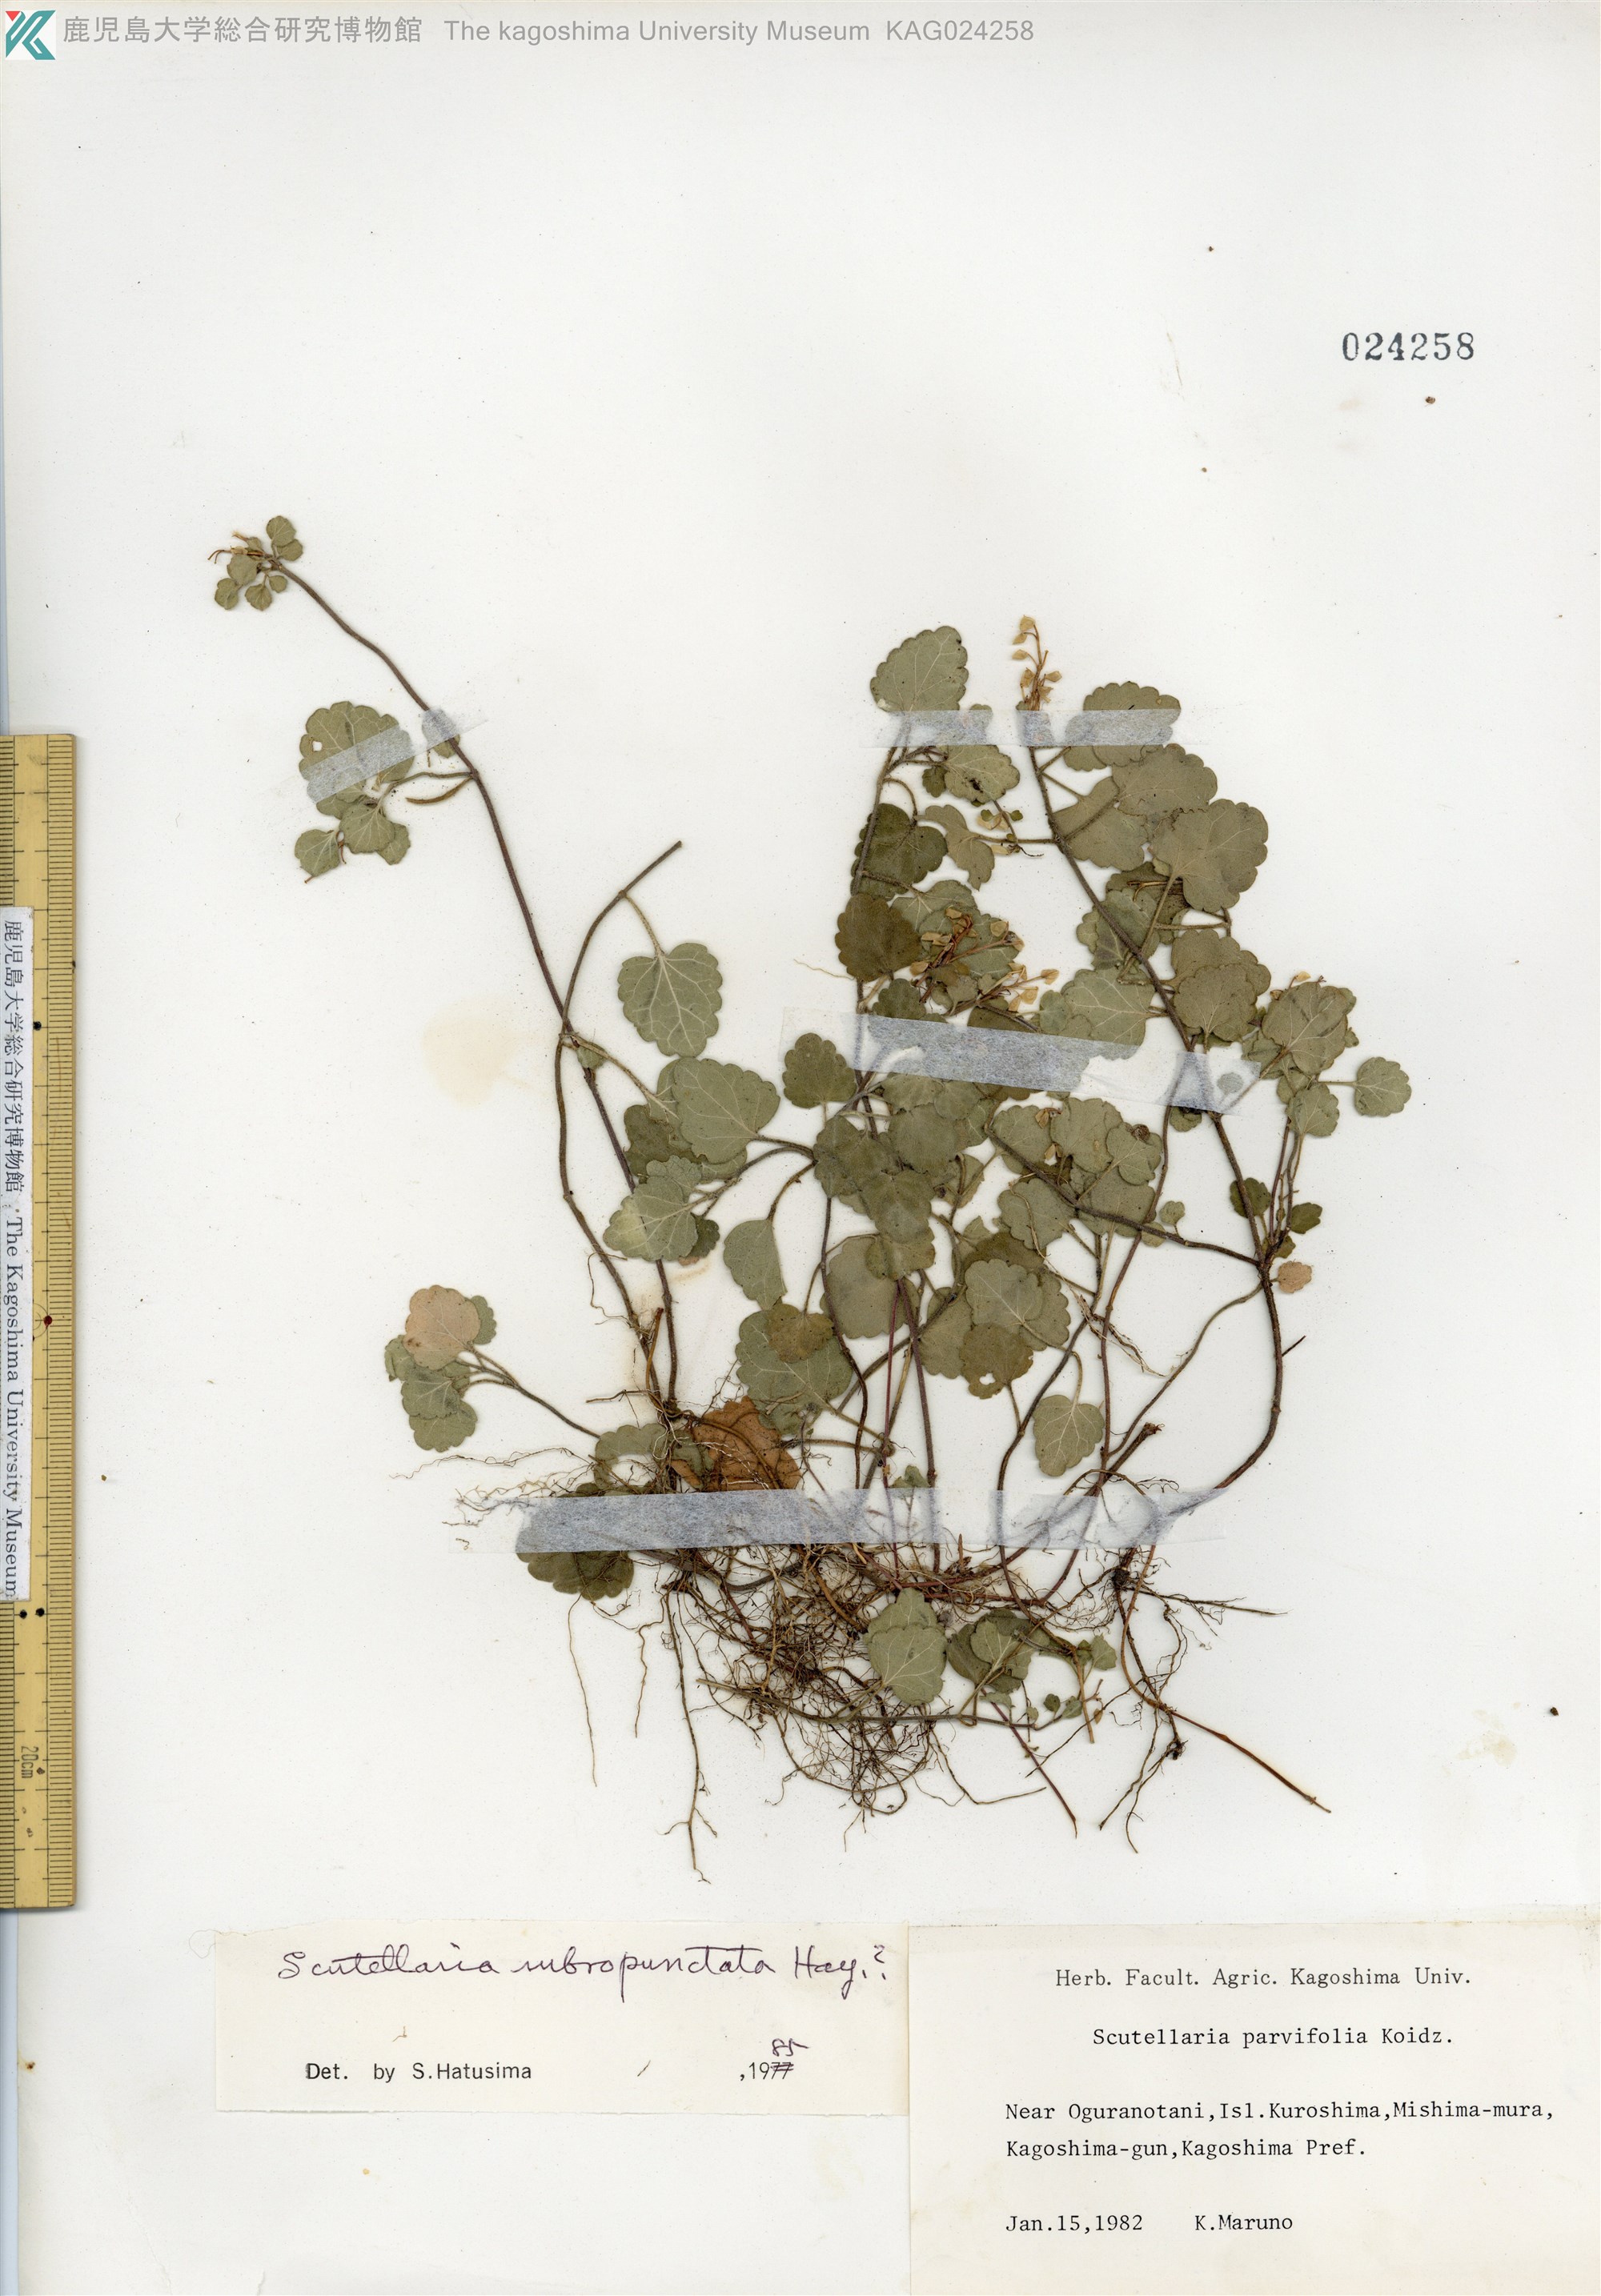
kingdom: Plantae
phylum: Tracheophyta
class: Magnoliopsida
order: Lamiales
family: Lamiaceae
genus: Scutellaria
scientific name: Scutellaria rubropunctata
